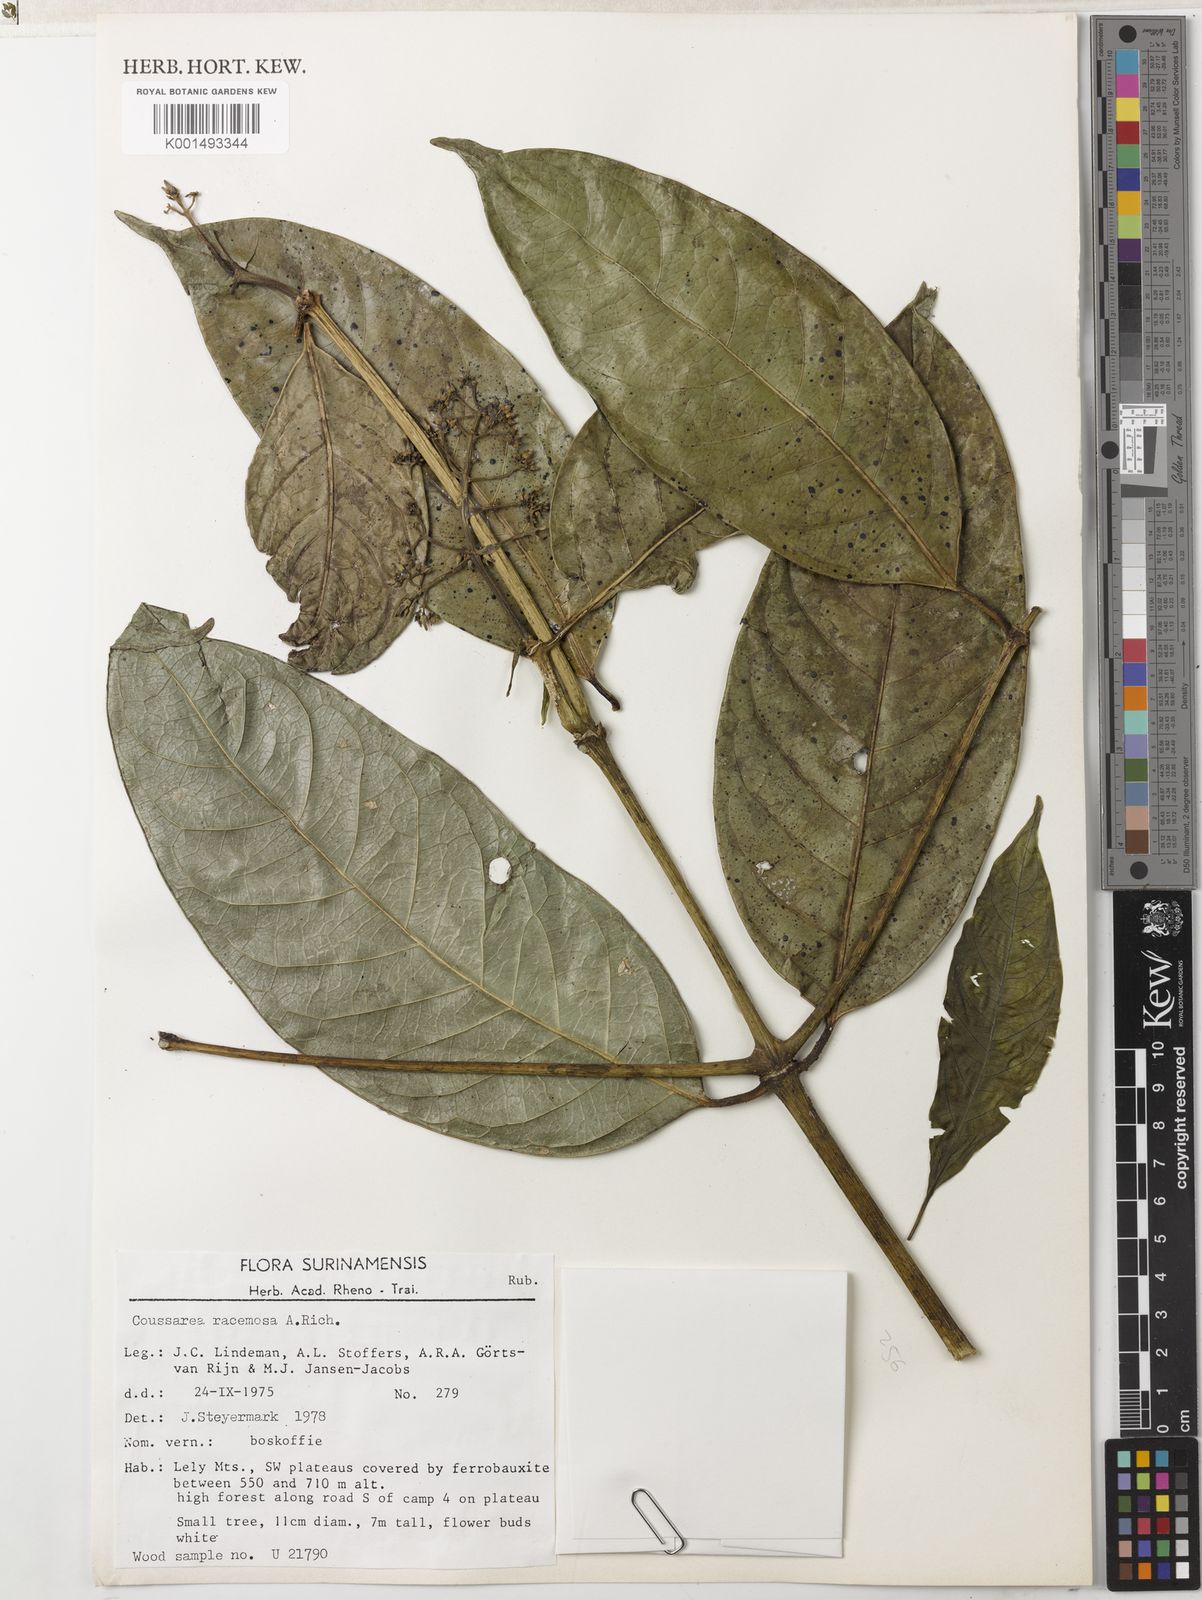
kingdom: Plantae
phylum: Tracheophyta
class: Magnoliopsida
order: Gentianales
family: Rubiaceae
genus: Coussarea
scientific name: Coussarea albescens
